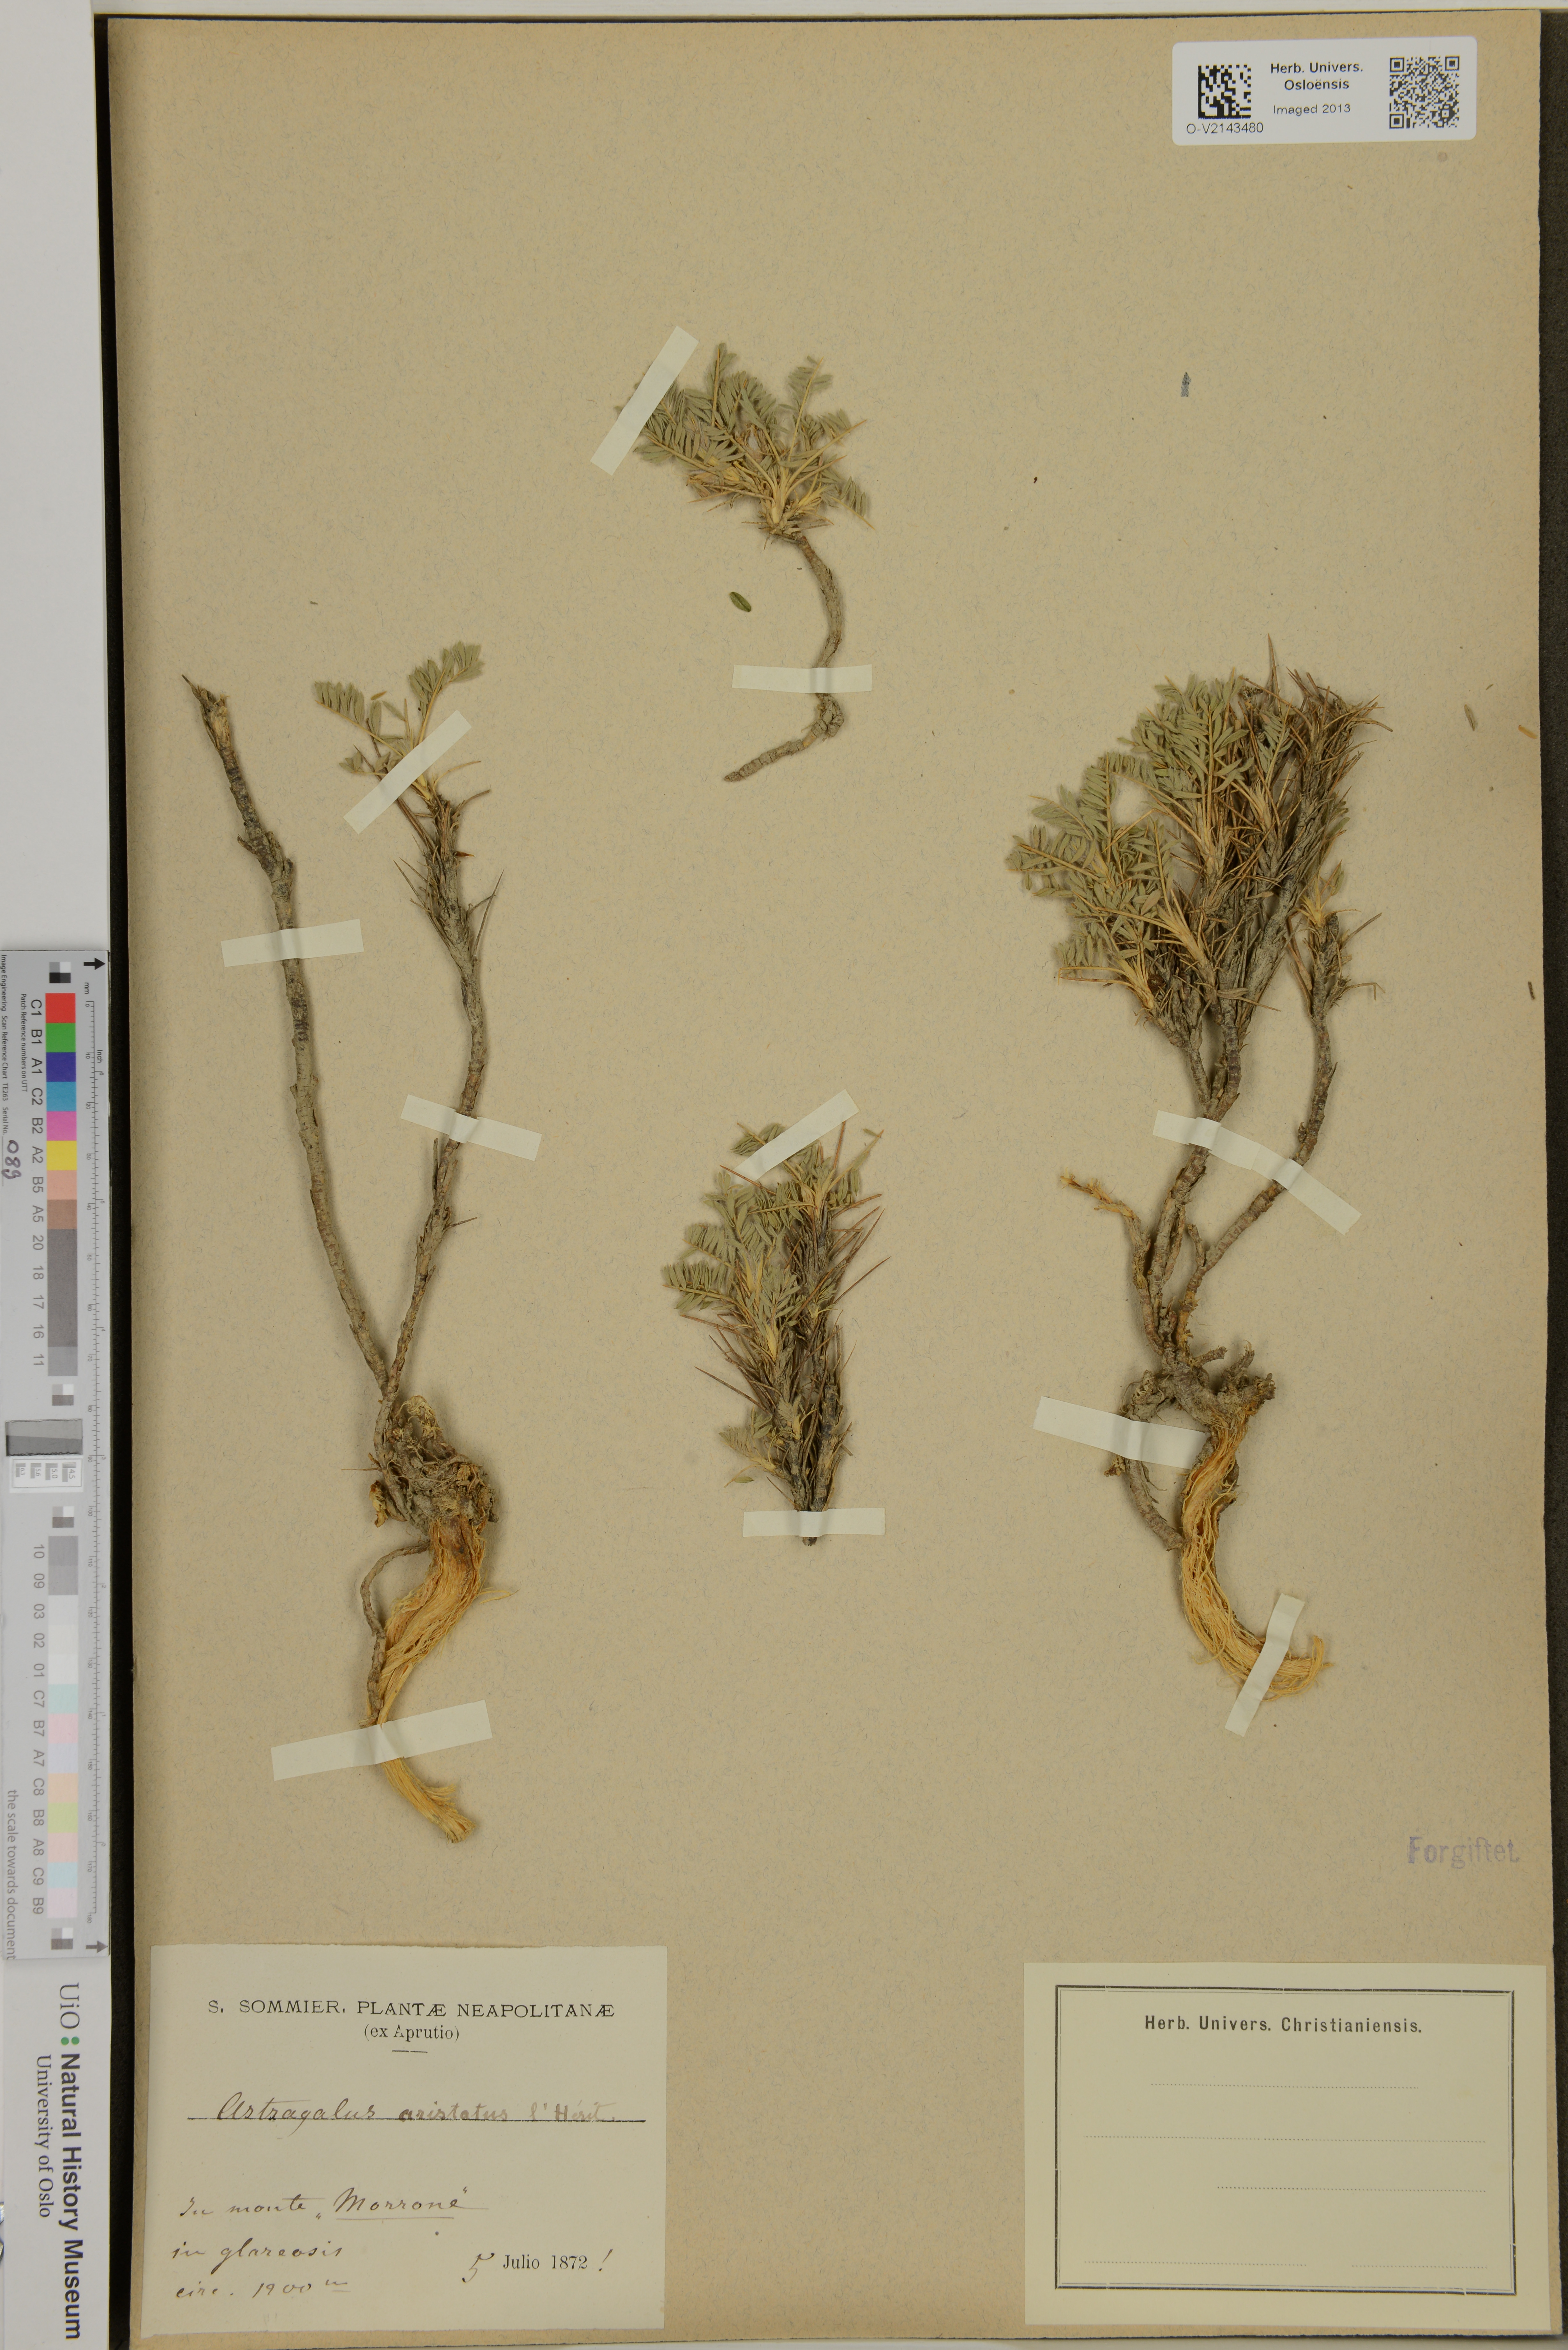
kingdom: Plantae
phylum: Tracheophyta
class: Magnoliopsida
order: Fabales
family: Fabaceae
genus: Astragalus
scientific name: Astragalus
